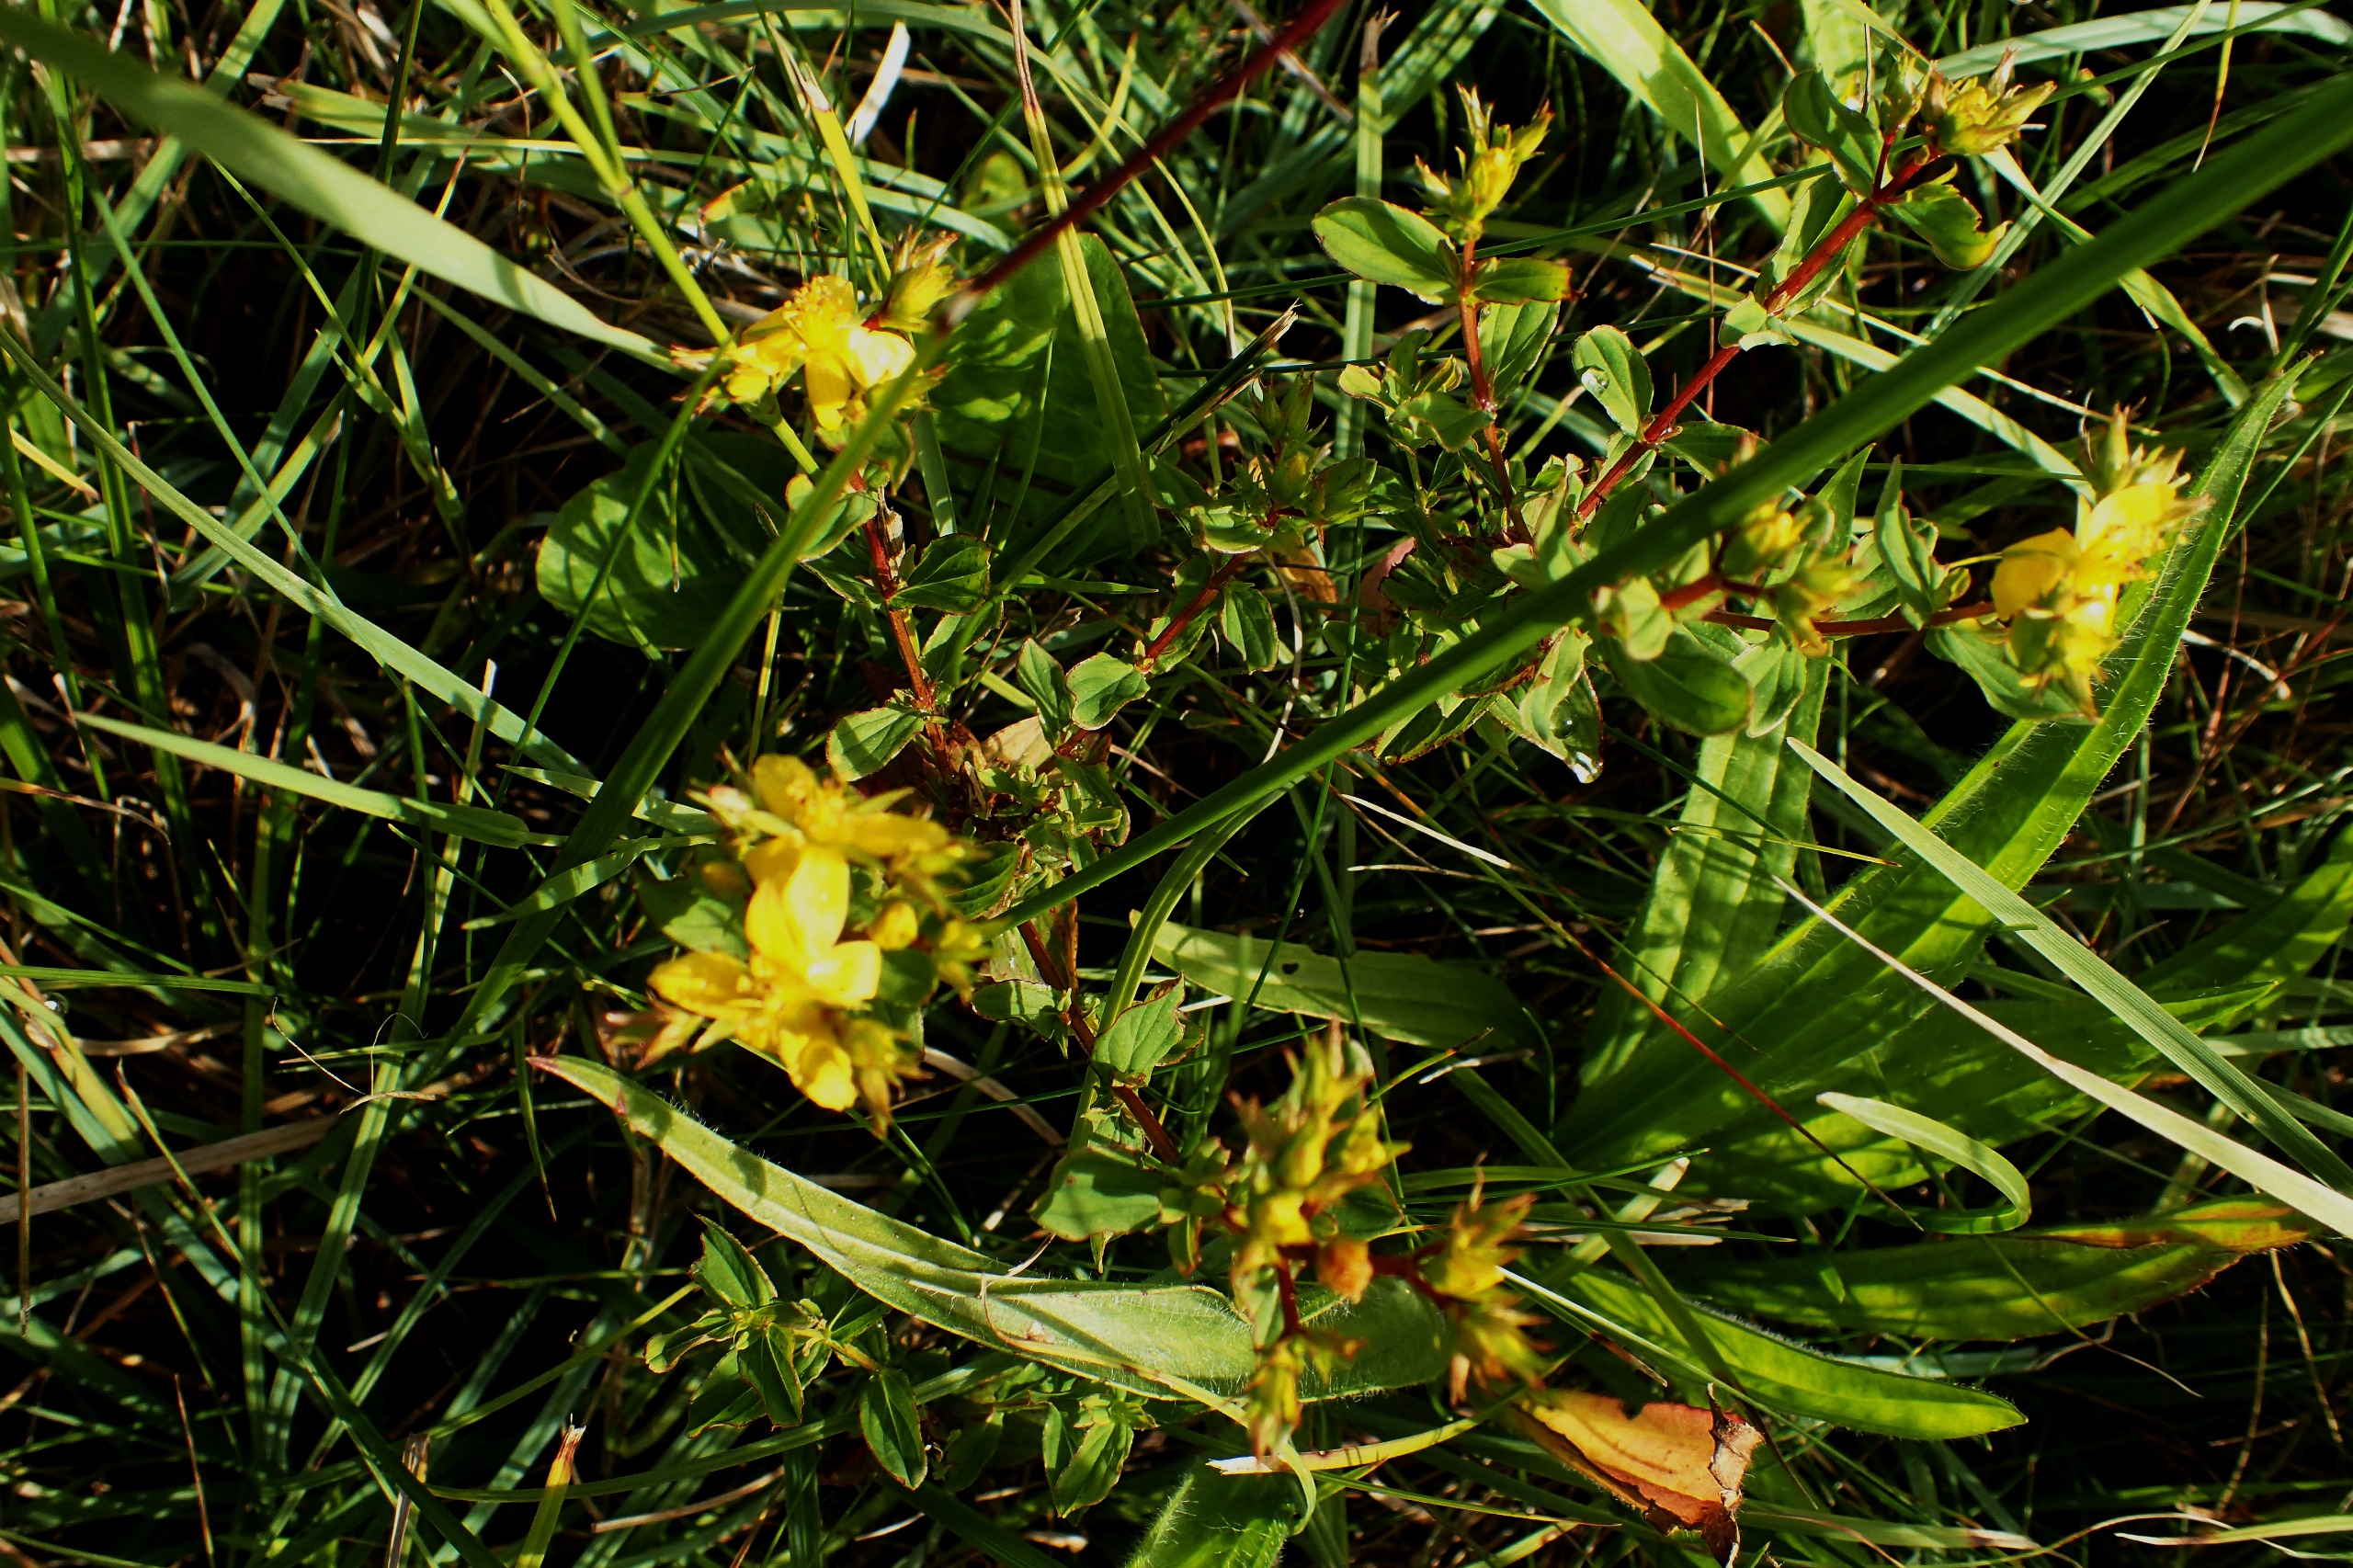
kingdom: Plantae
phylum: Tracheophyta
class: Magnoliopsida
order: Malpighiales
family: Hypericaceae
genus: Hypericum
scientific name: Hypericum tetrapterum
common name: Vinget perikon
